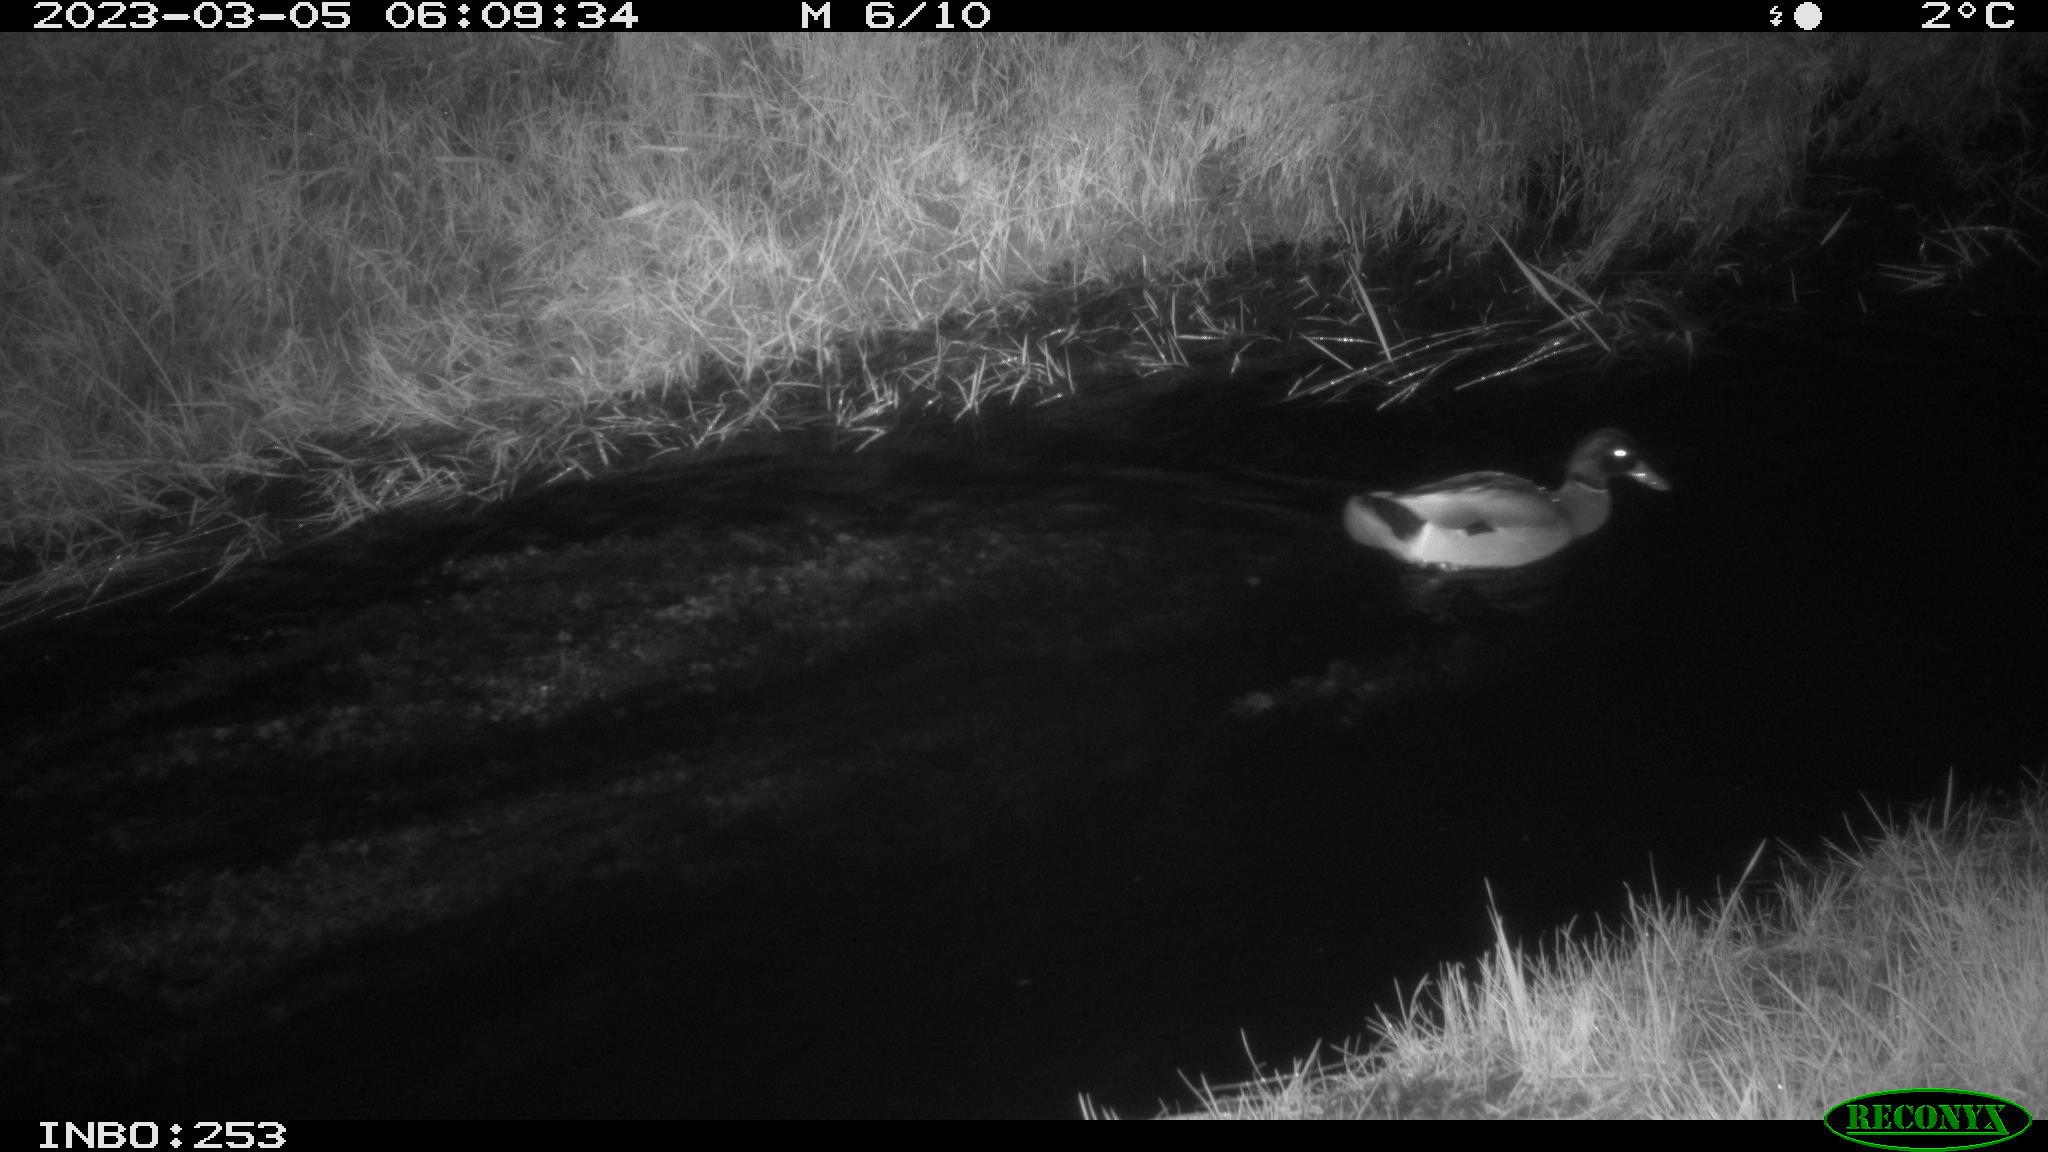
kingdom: Animalia
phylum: Chordata
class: Aves
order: Anseriformes
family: Anatidae
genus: Anas
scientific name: Anas
